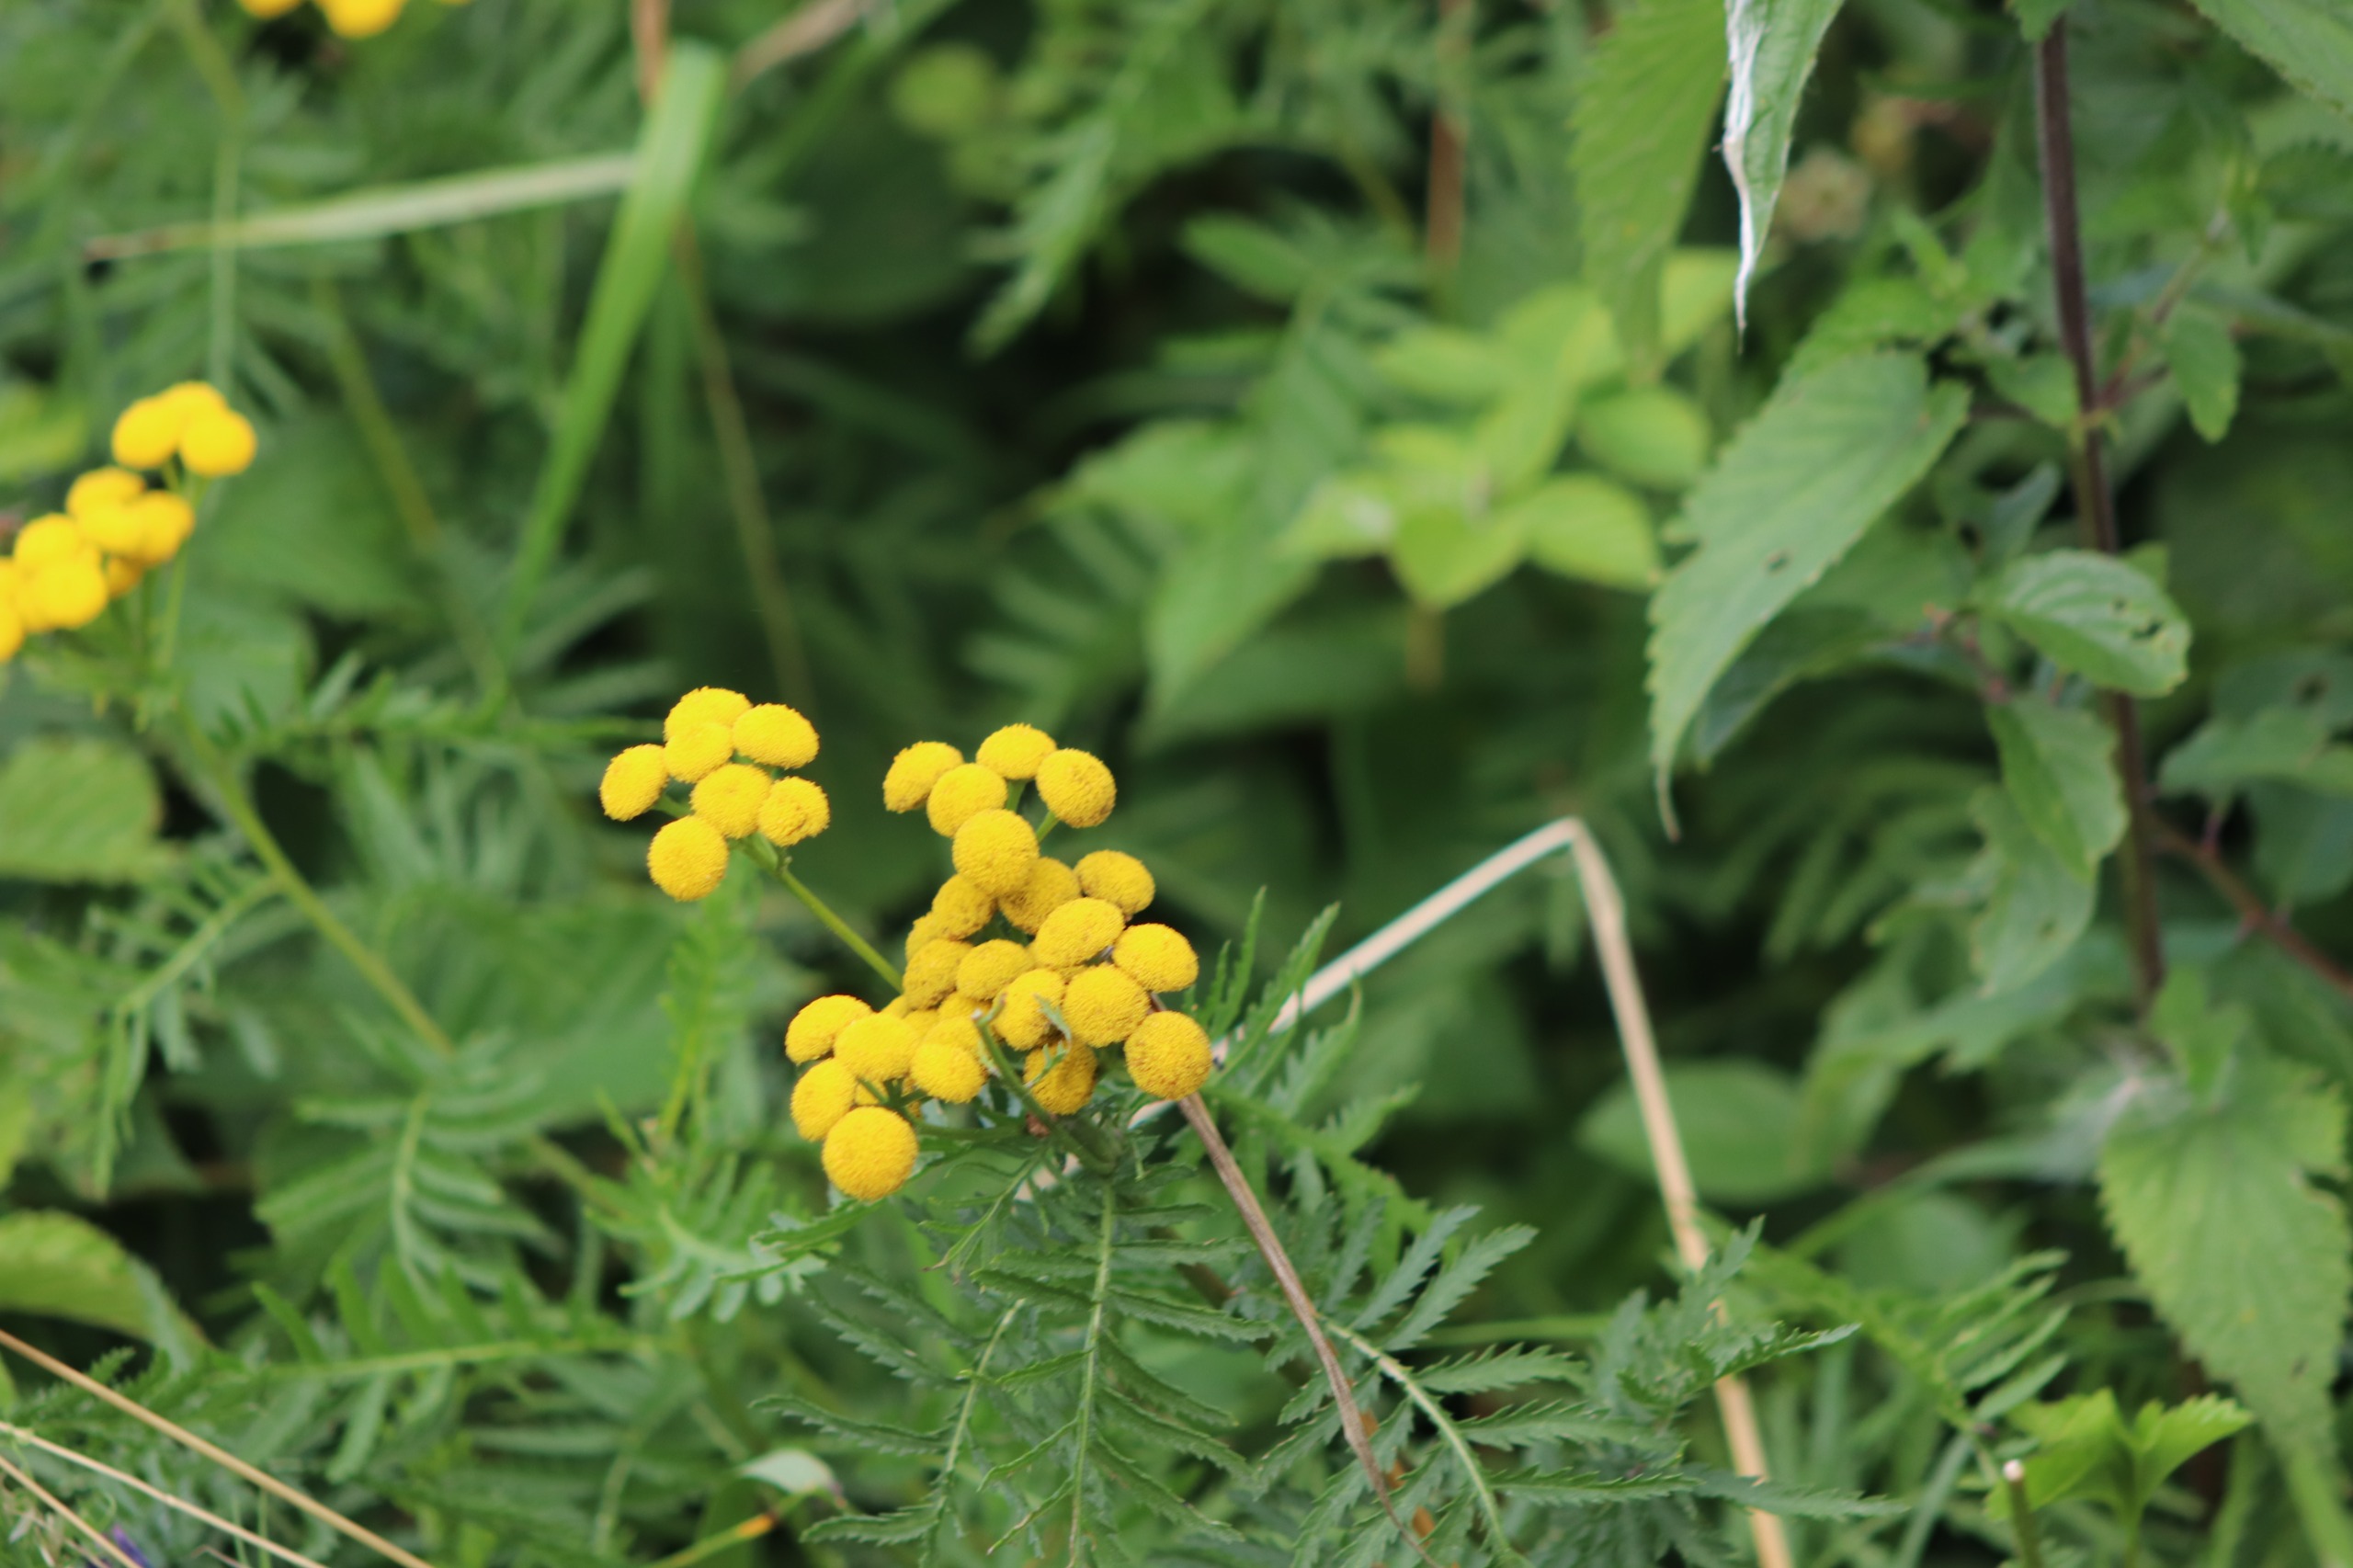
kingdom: Plantae
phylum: Tracheophyta
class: Magnoliopsida
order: Asterales
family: Asteraceae
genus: Tanacetum
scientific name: Tanacetum vulgare
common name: Rejnfan
